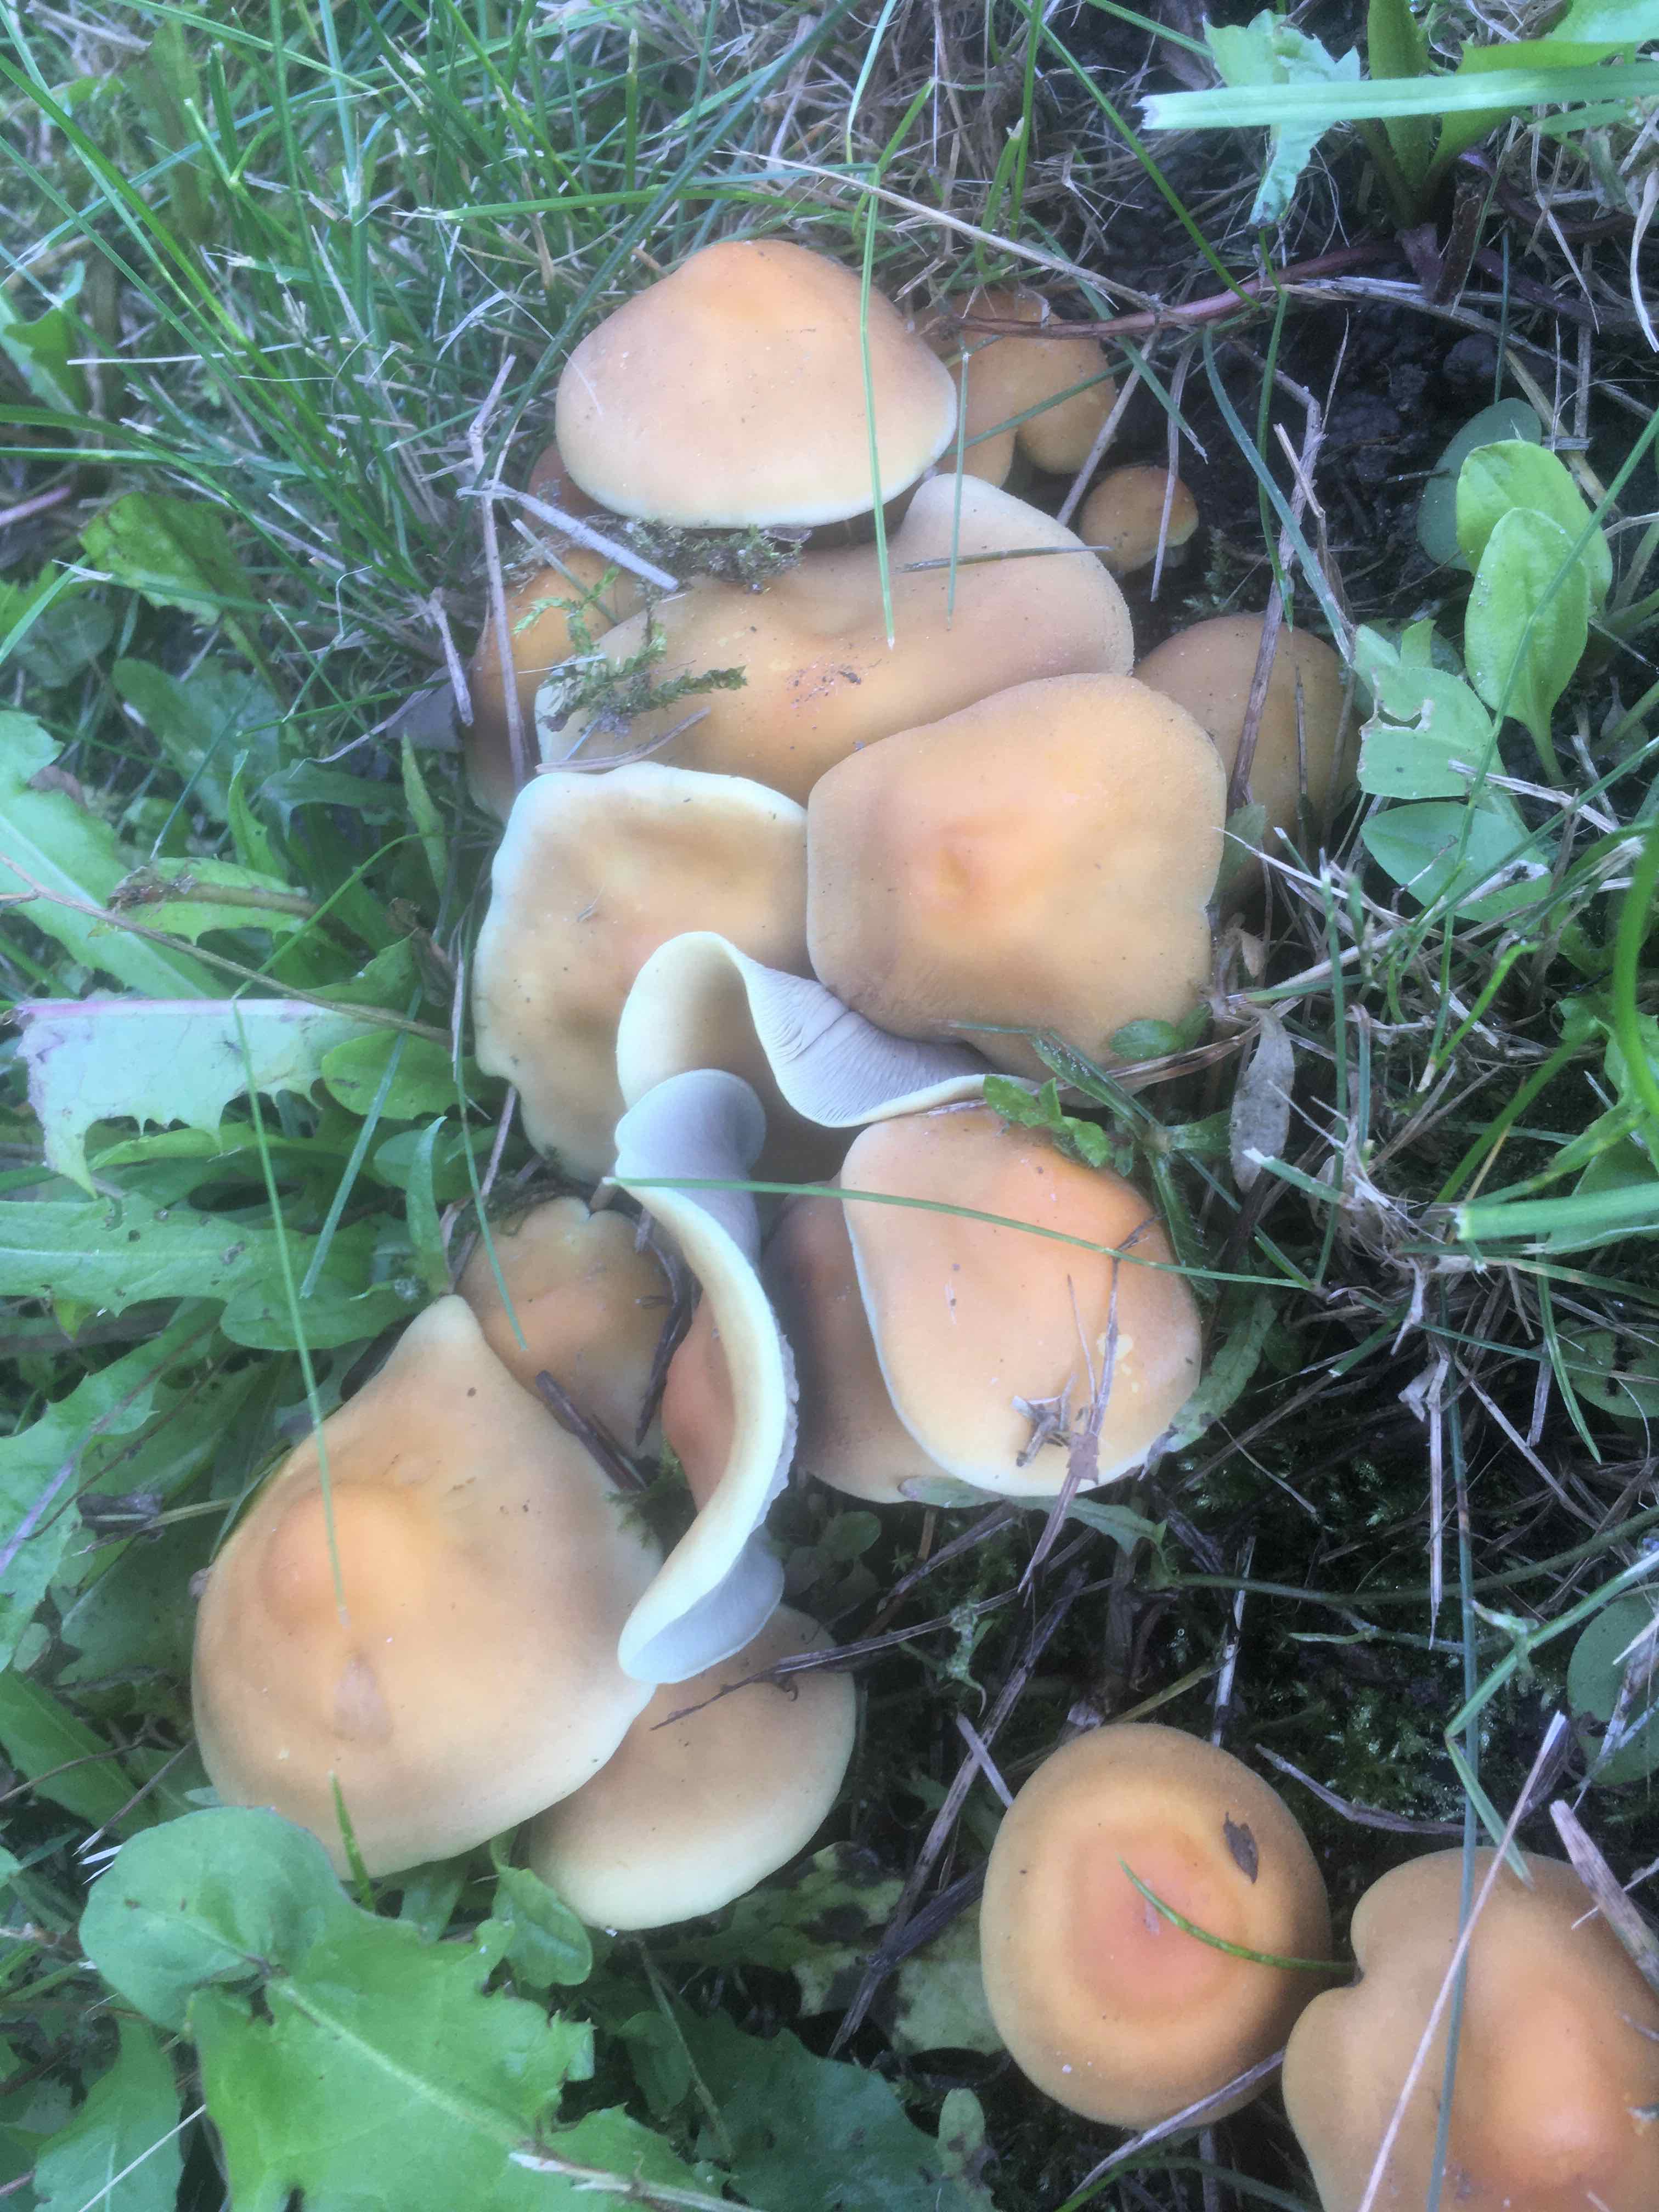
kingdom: Fungi
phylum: Basidiomycota
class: Agaricomycetes
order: Agaricales
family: Strophariaceae
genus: Hypholoma
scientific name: Hypholoma fasciculare
